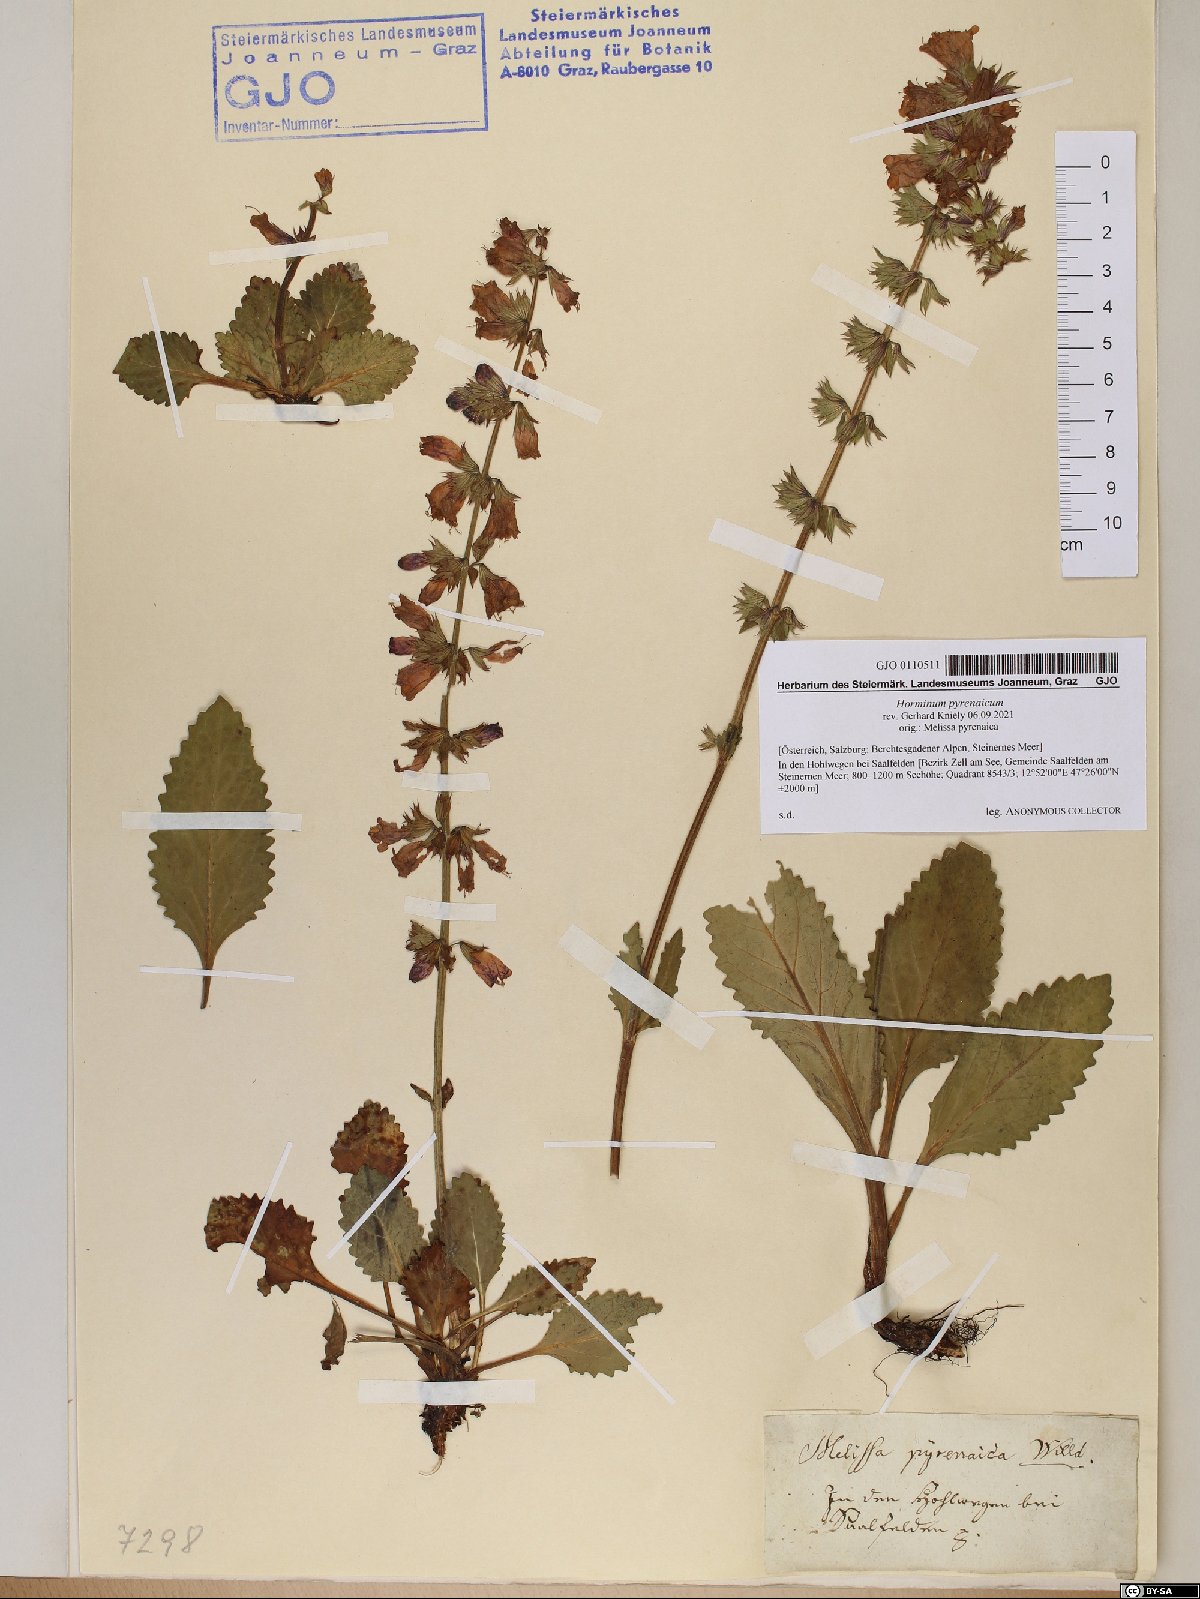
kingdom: Plantae
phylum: Tracheophyta
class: Magnoliopsida
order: Lamiales
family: Lamiaceae
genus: Horminum
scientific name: Horminum pyrenaicum
